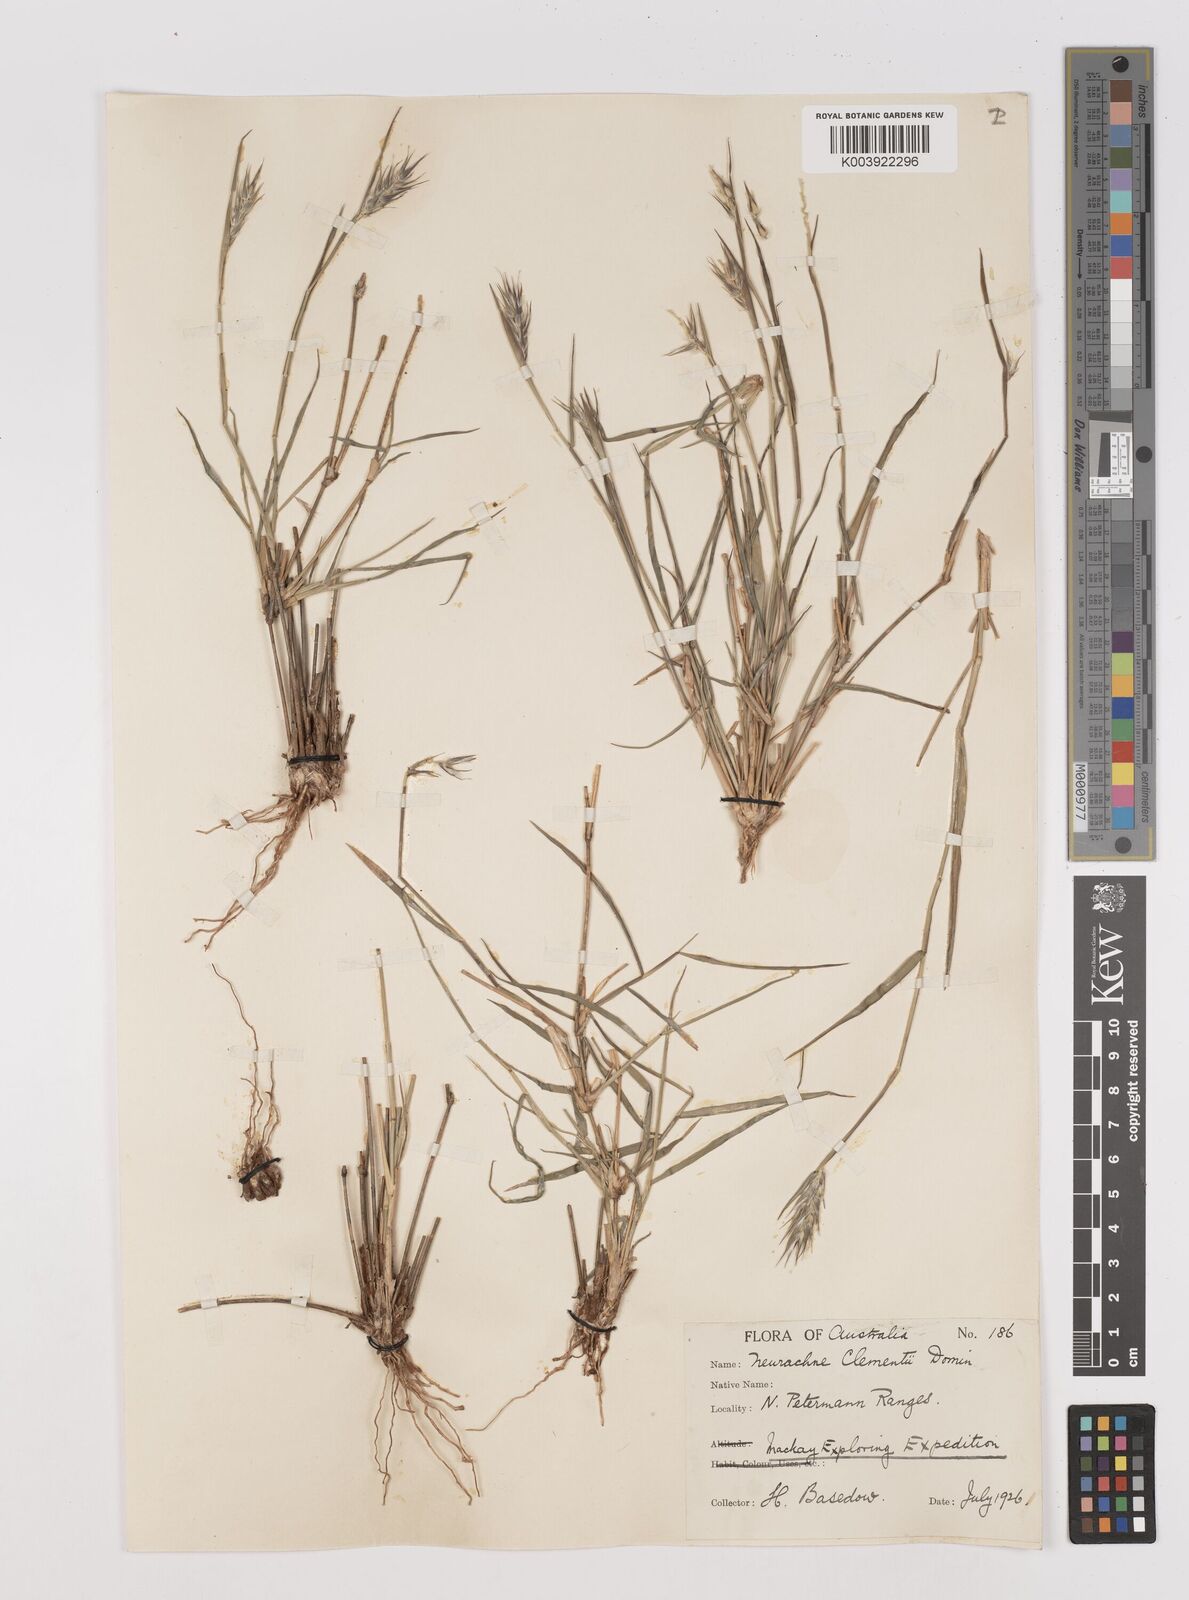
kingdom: Plantae
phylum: Tracheophyta
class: Liliopsida
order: Poales
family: Poaceae
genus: Neurachne
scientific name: Neurachne muelleri
